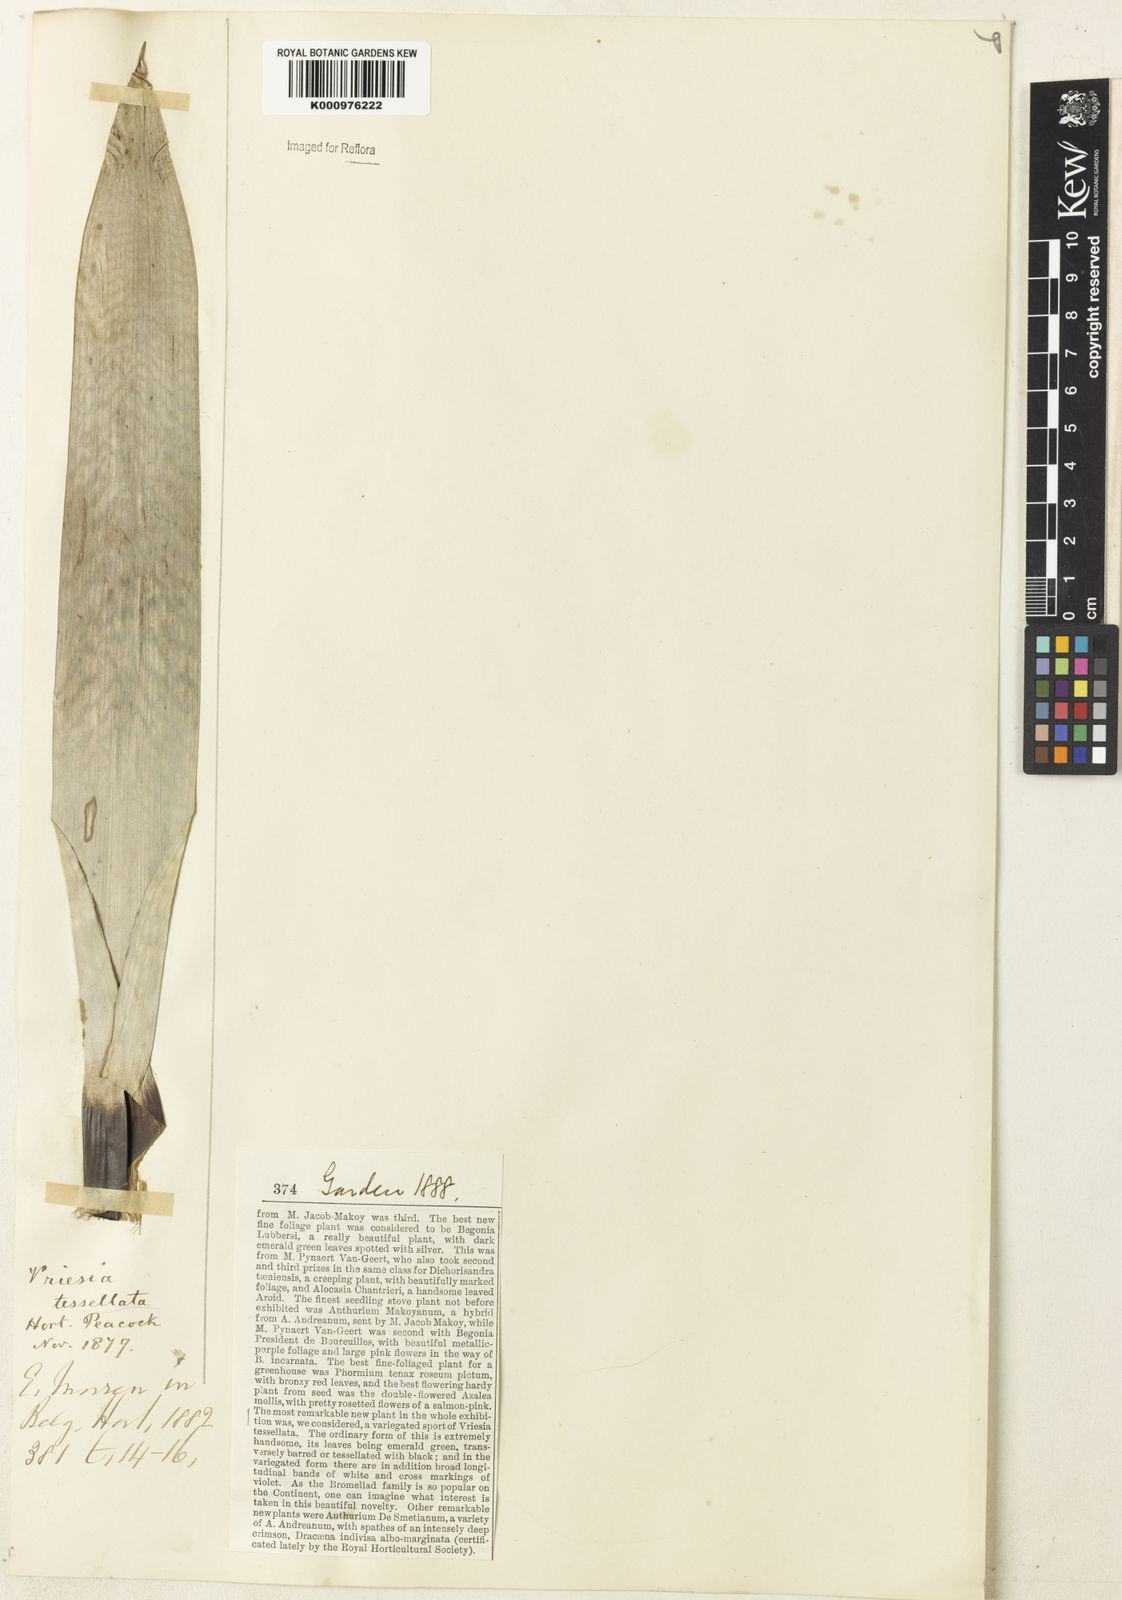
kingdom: Plantae
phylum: Tracheophyta
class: Liliopsida
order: Poales
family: Bromeliaceae
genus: Vriesea
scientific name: Vriesea gigantea
